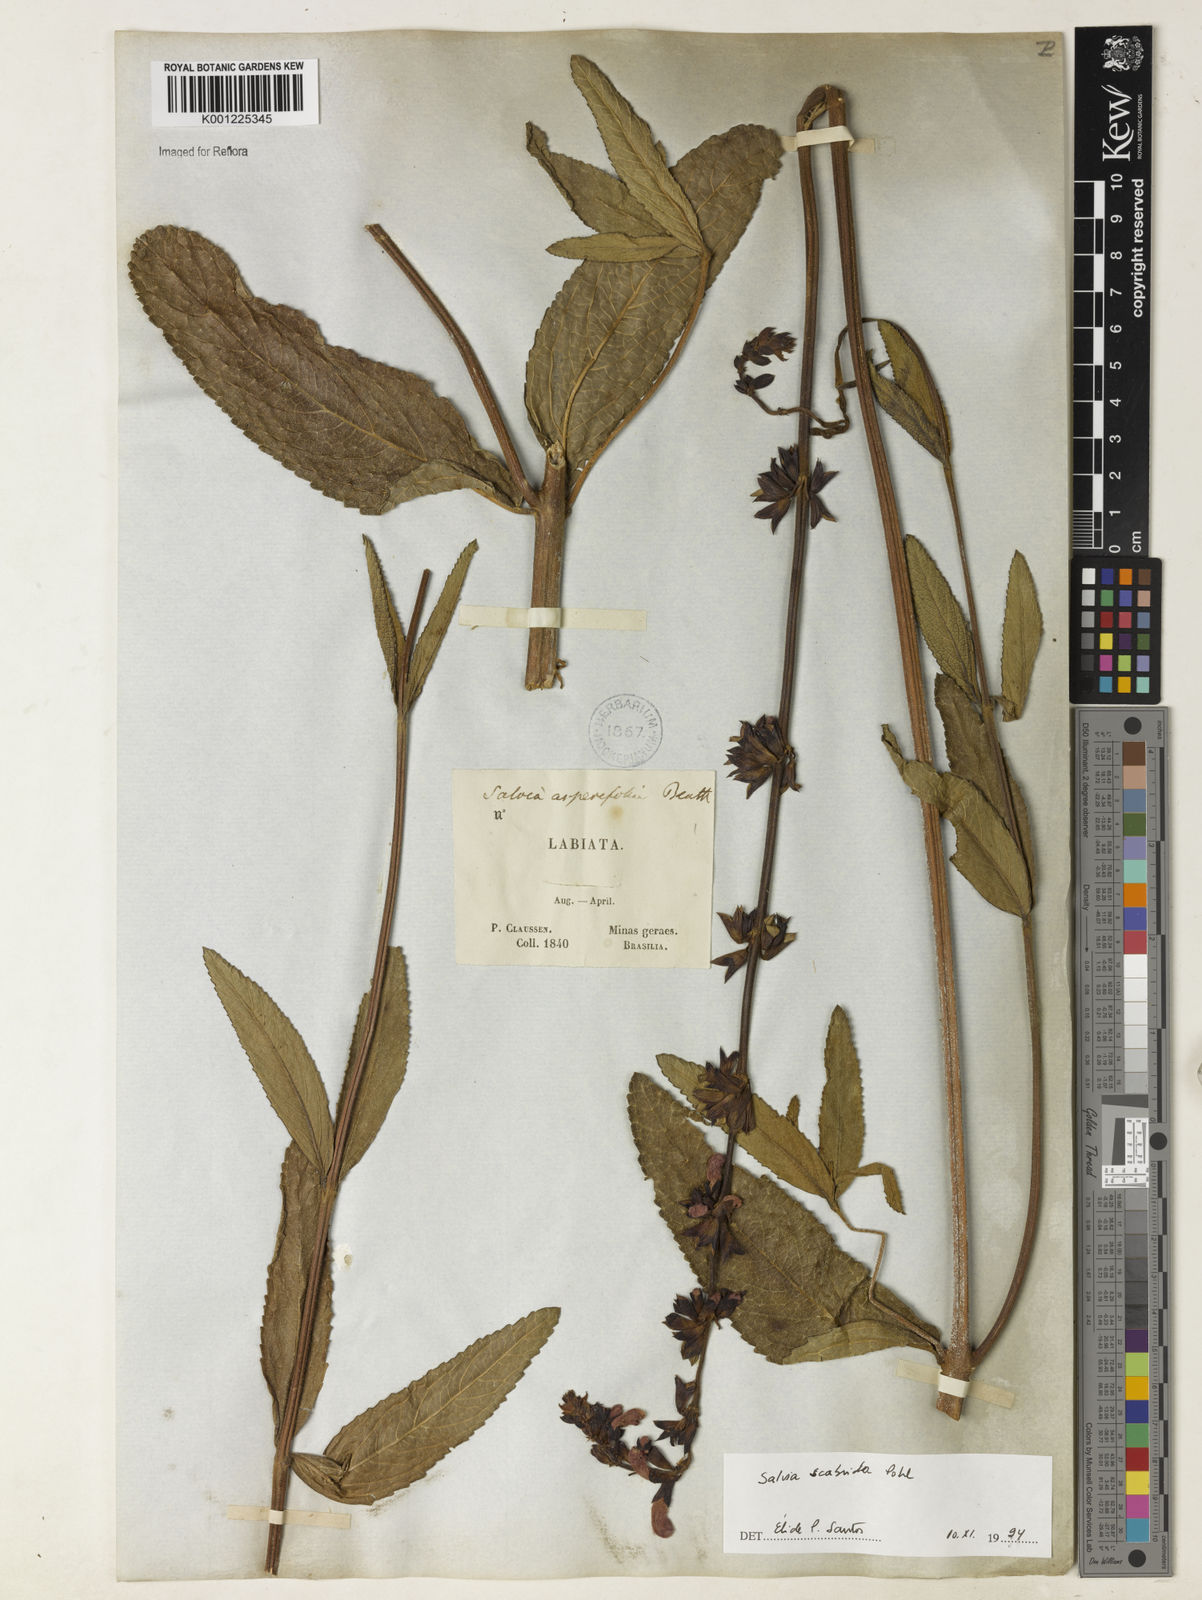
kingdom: Plantae
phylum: Tracheophyta
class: Magnoliopsida
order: Lamiales
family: Lamiaceae
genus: Salvia
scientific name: Salvia scabrida
